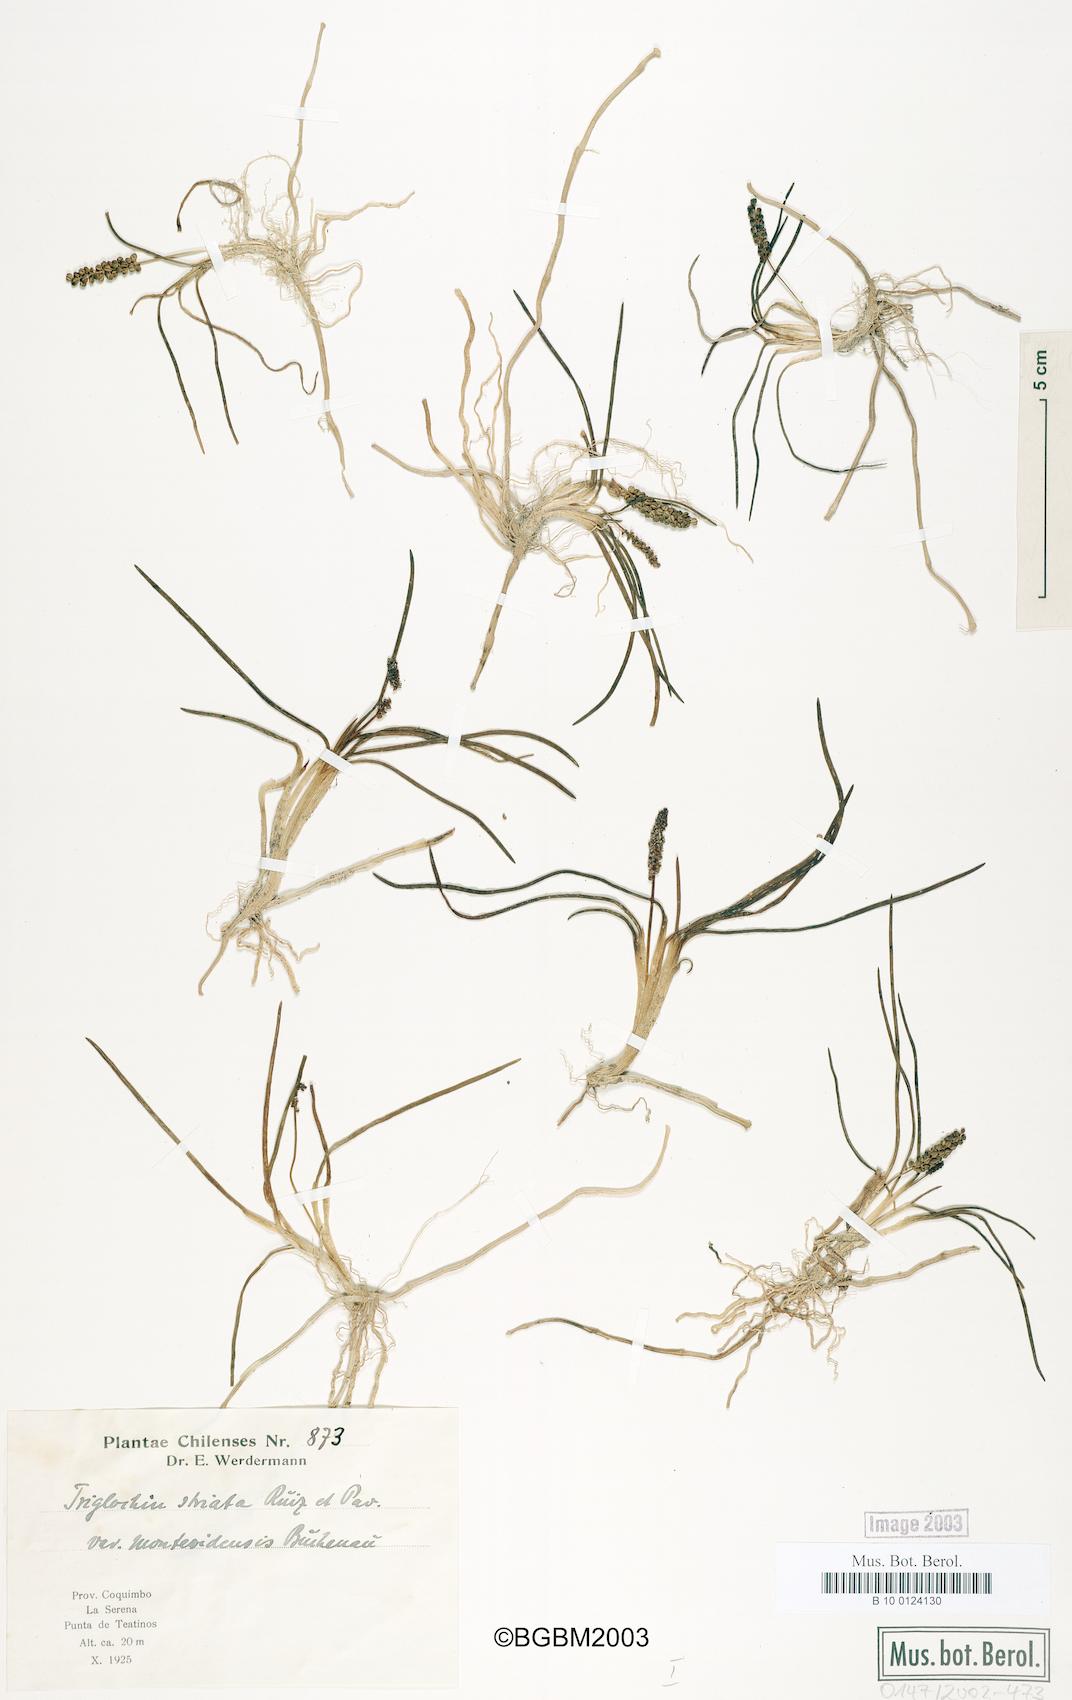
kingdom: Plantae
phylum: Tracheophyta
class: Liliopsida
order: Alismatales
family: Juncaginaceae
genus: Triglochin
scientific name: Triglochin striata
